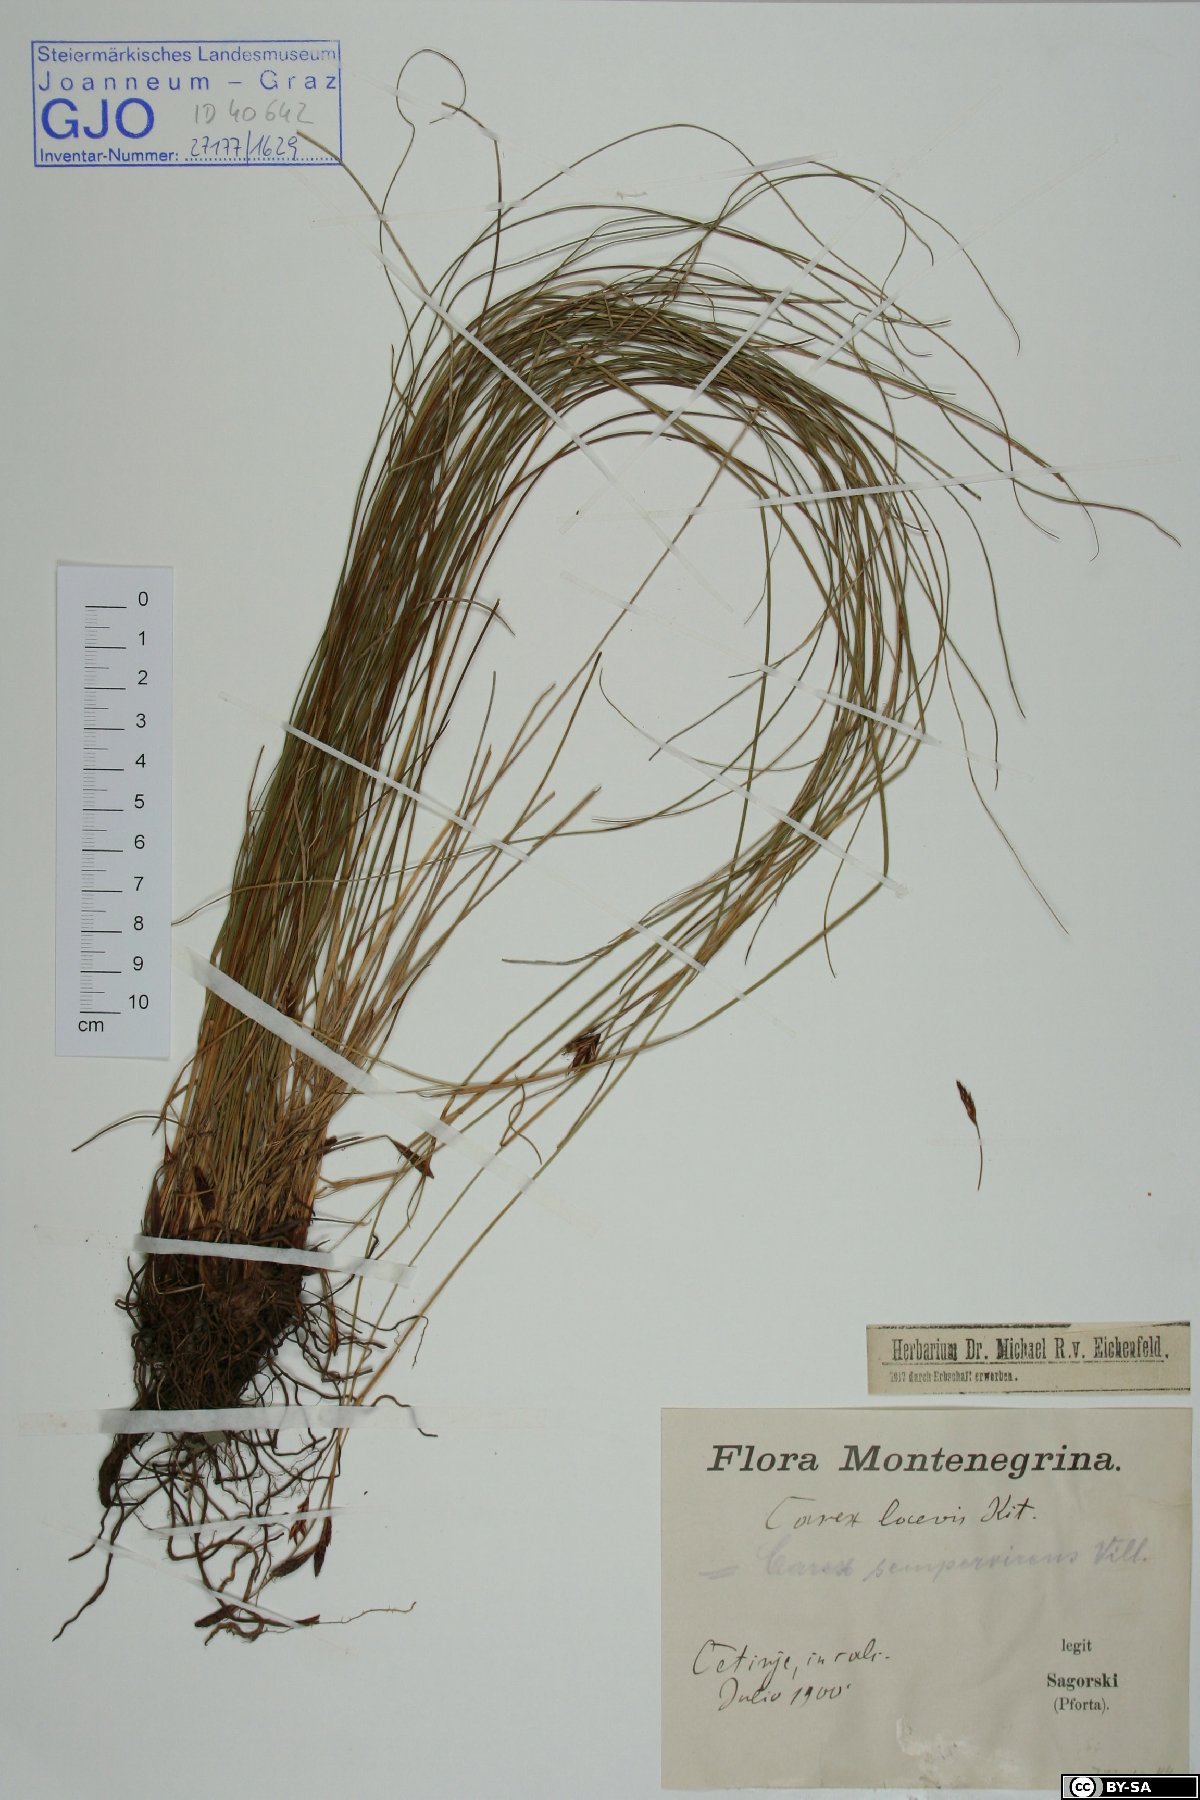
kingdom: Plantae
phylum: Tracheophyta
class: Liliopsida
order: Poales
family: Cyperaceae
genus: Carex
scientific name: Carex kitaibeliana
